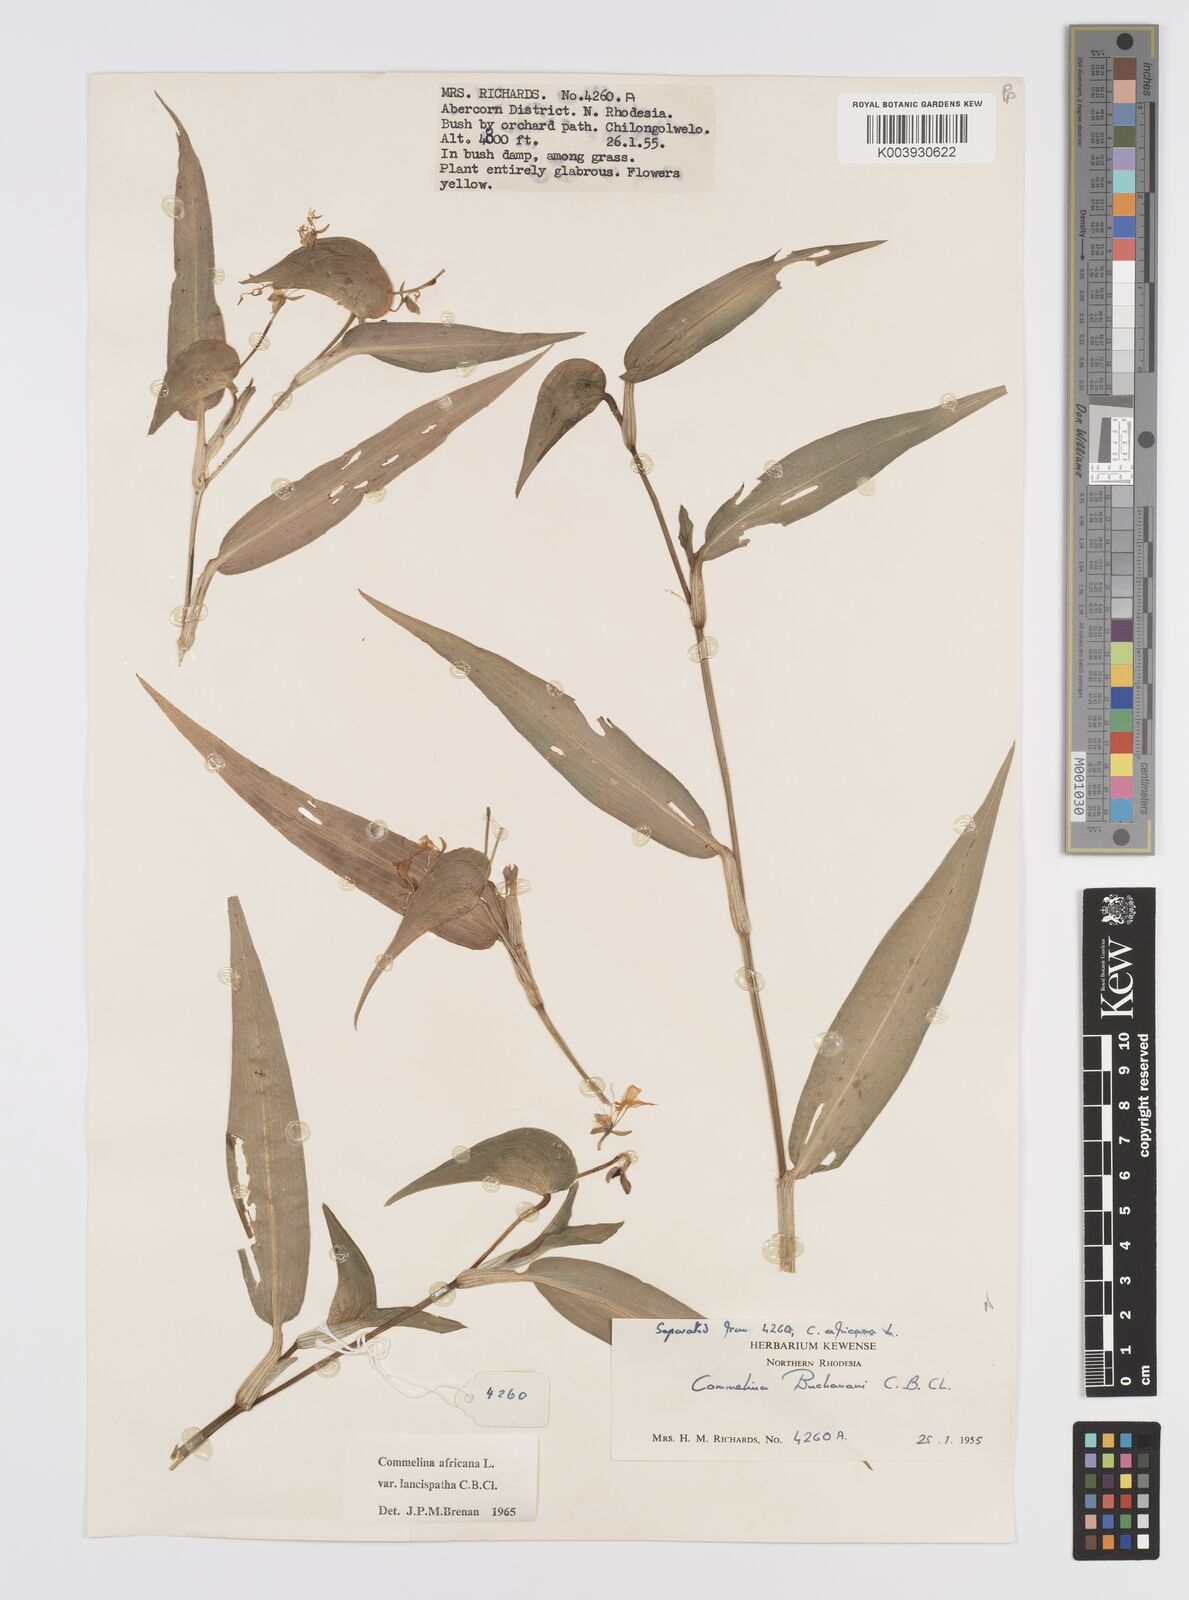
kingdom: Plantae
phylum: Tracheophyta
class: Liliopsida
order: Commelinales
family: Commelinaceae
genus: Commelina
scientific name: Commelina africana
